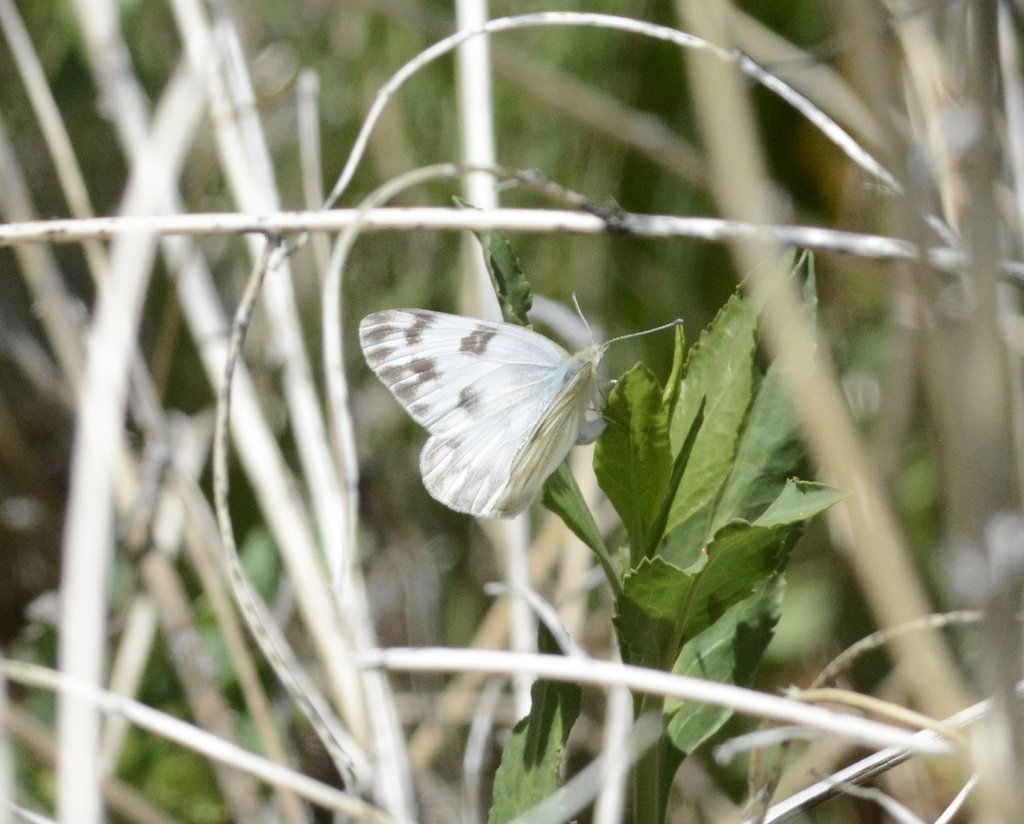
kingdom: Animalia
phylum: Arthropoda
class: Insecta
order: Lepidoptera
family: Pieridae
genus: Pontia
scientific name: Pontia protodice
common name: Checkered White
